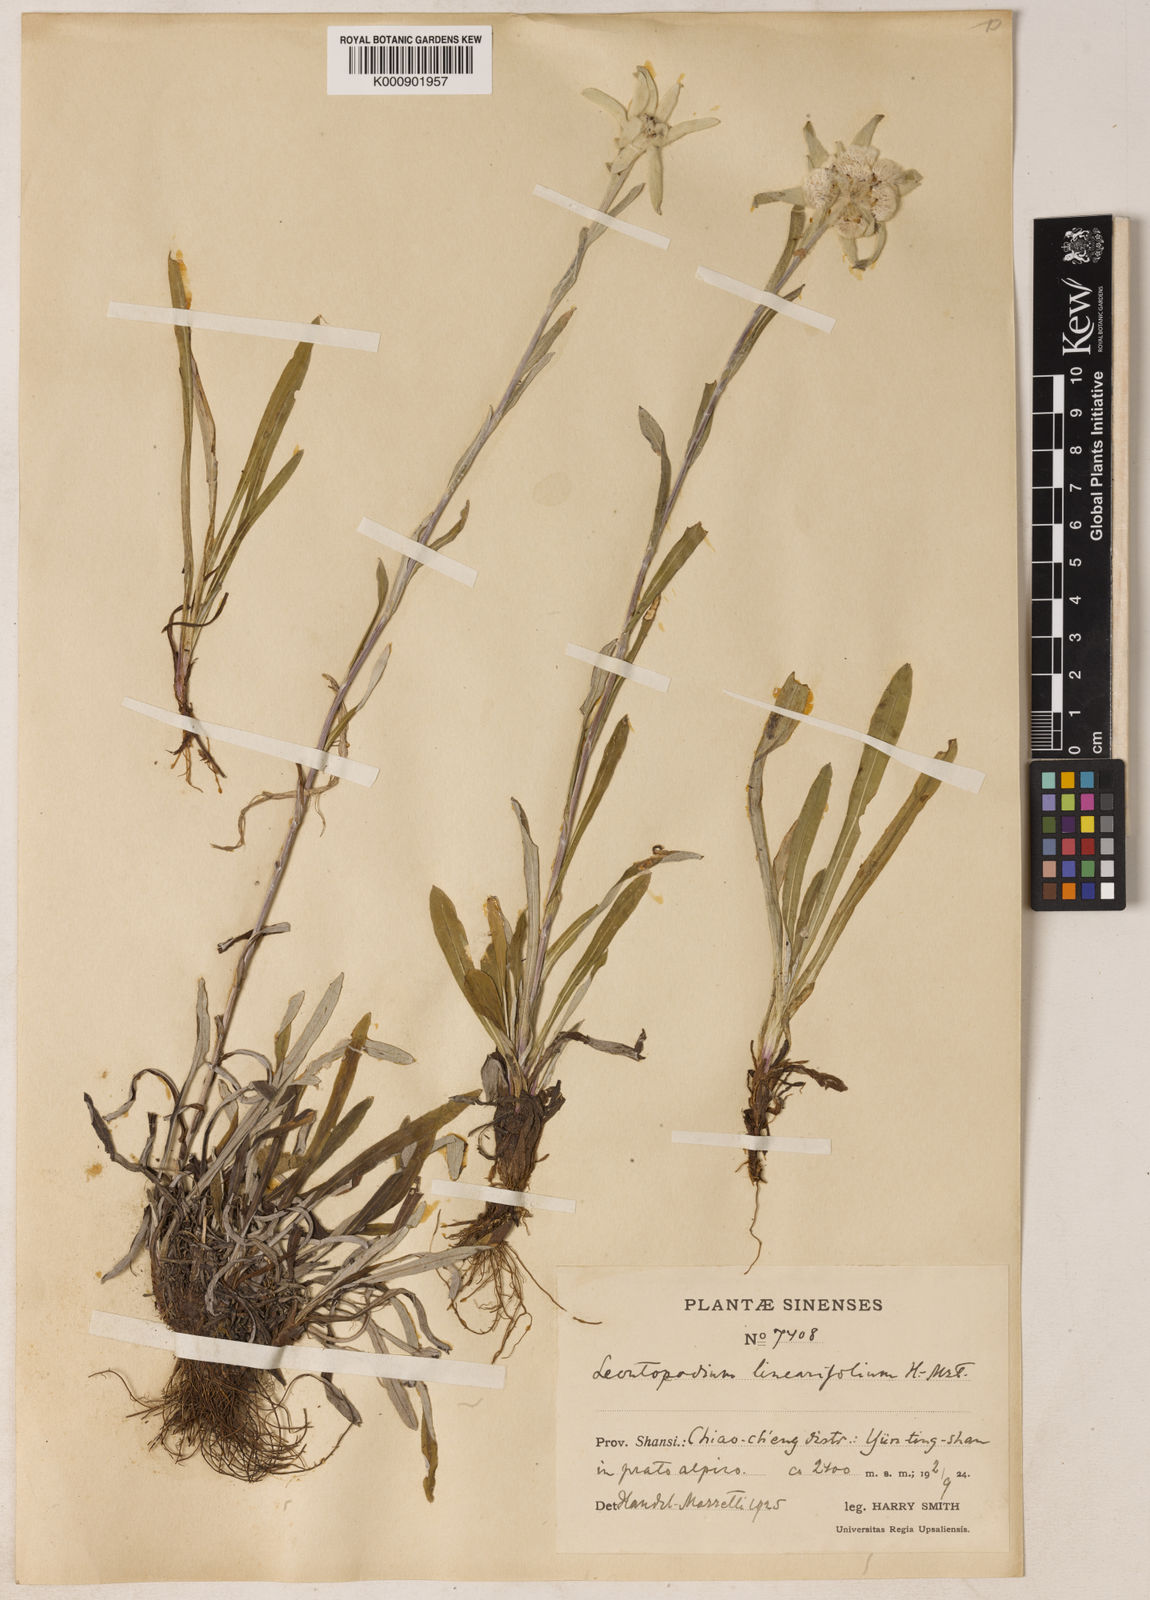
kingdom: Plantae
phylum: Tracheophyta
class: Magnoliopsida
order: Asterales
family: Asteraceae
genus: Leontopodium
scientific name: Leontopodium junpeianum
